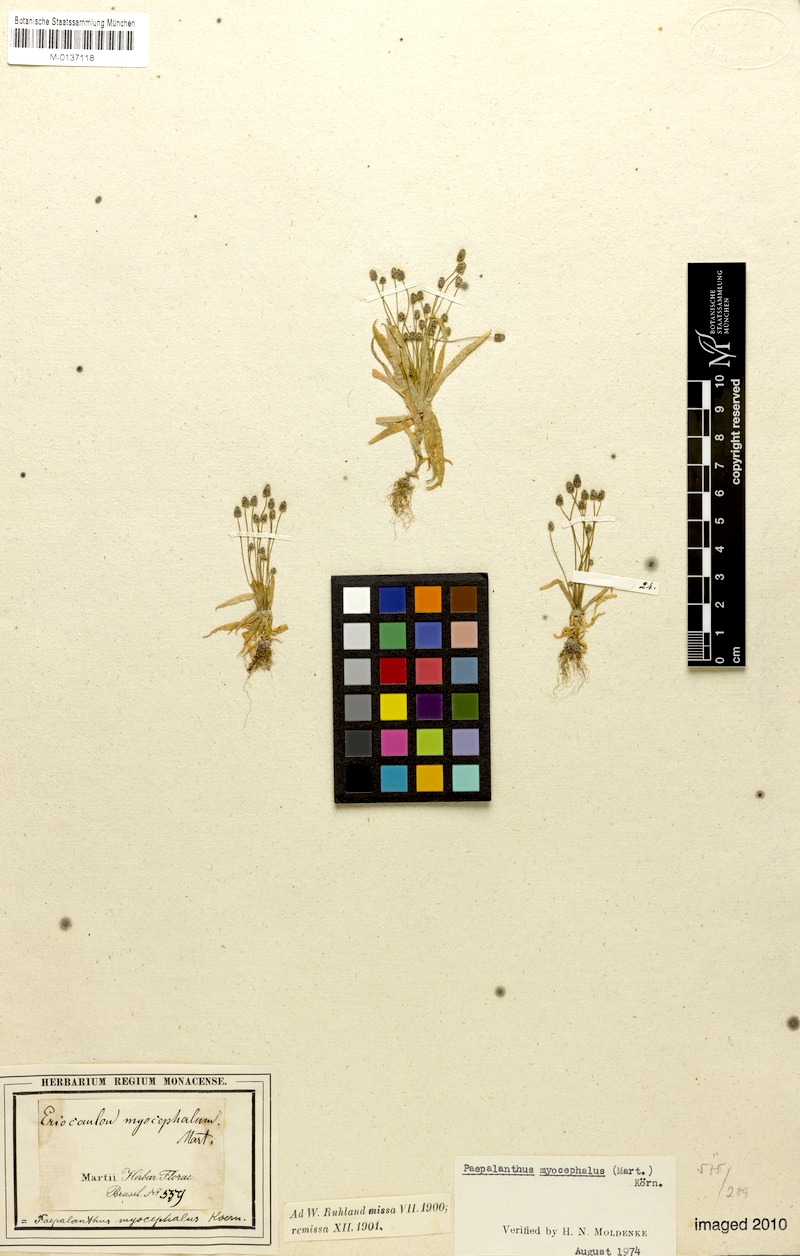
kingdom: Plantae
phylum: Tracheophyta
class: Liliopsida
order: Poales
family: Eriocaulaceae
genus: Paepalanthus
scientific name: Paepalanthus myocephalon
